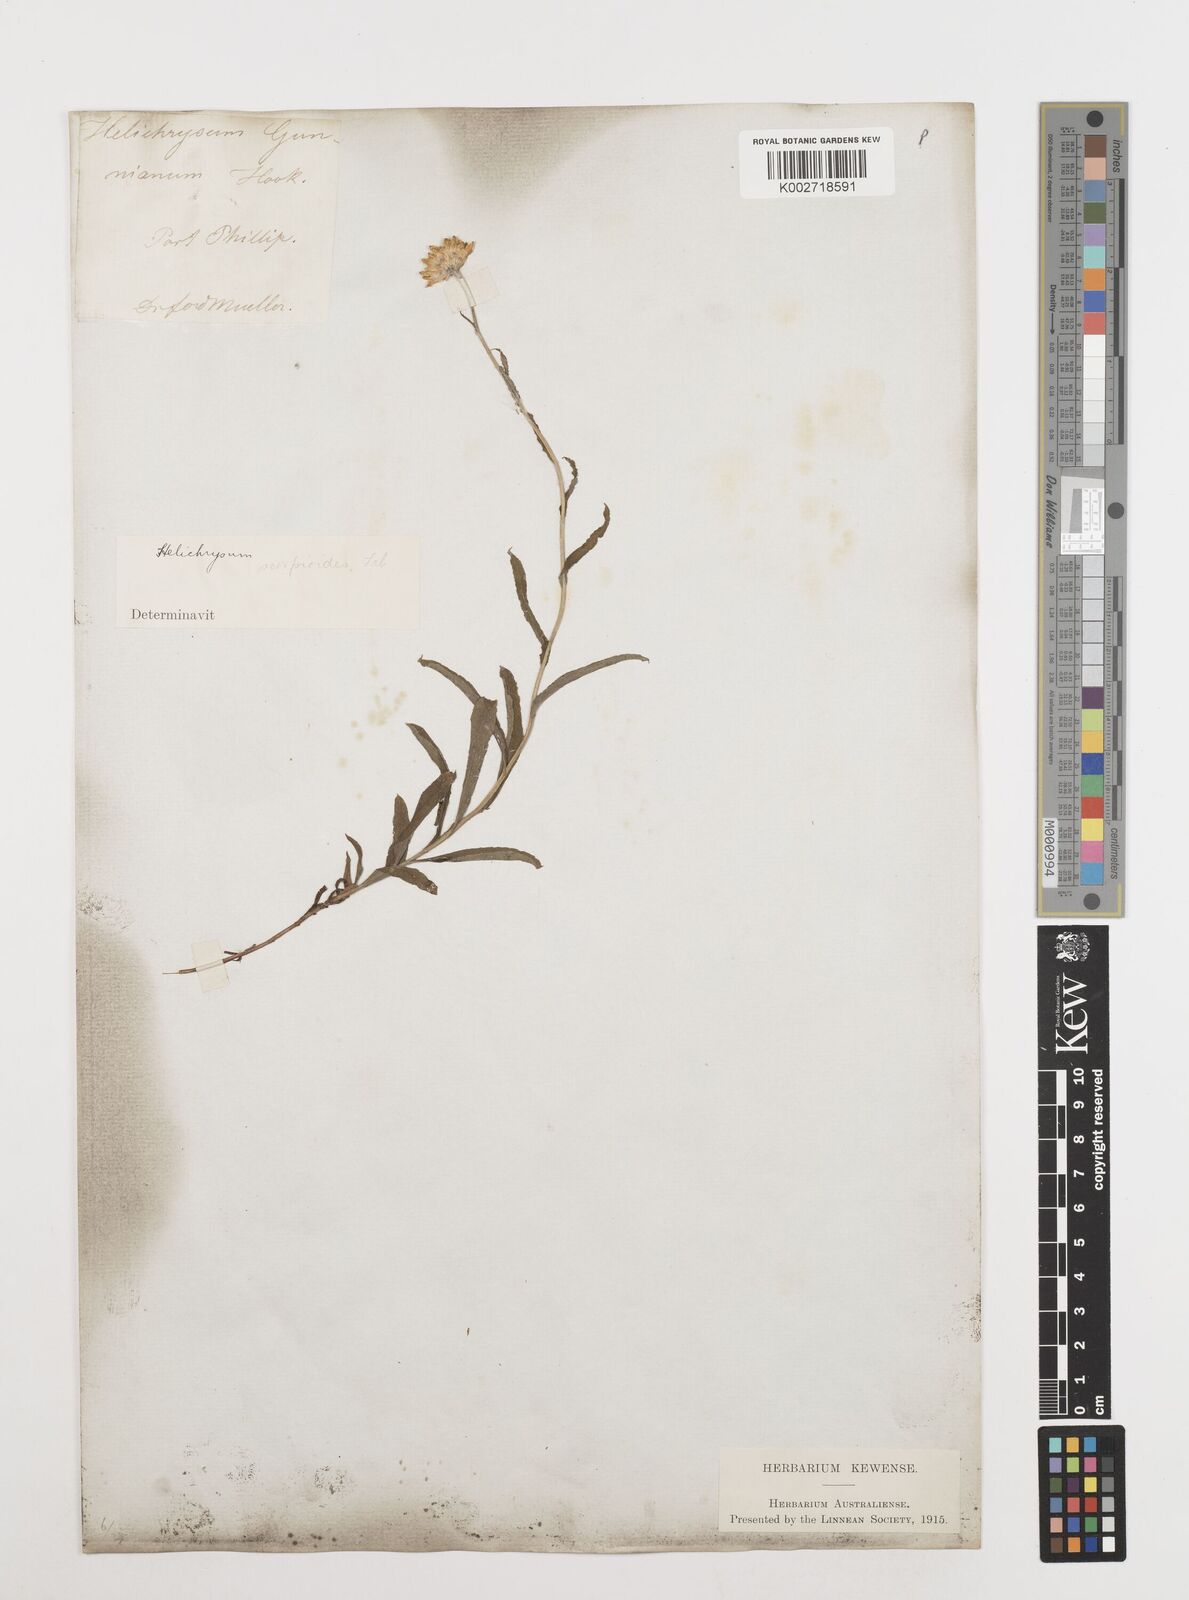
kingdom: Plantae
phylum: Tracheophyta
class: Magnoliopsida
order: Asterales
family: Asteraceae
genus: Coronidium
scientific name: Coronidium scorpioides
